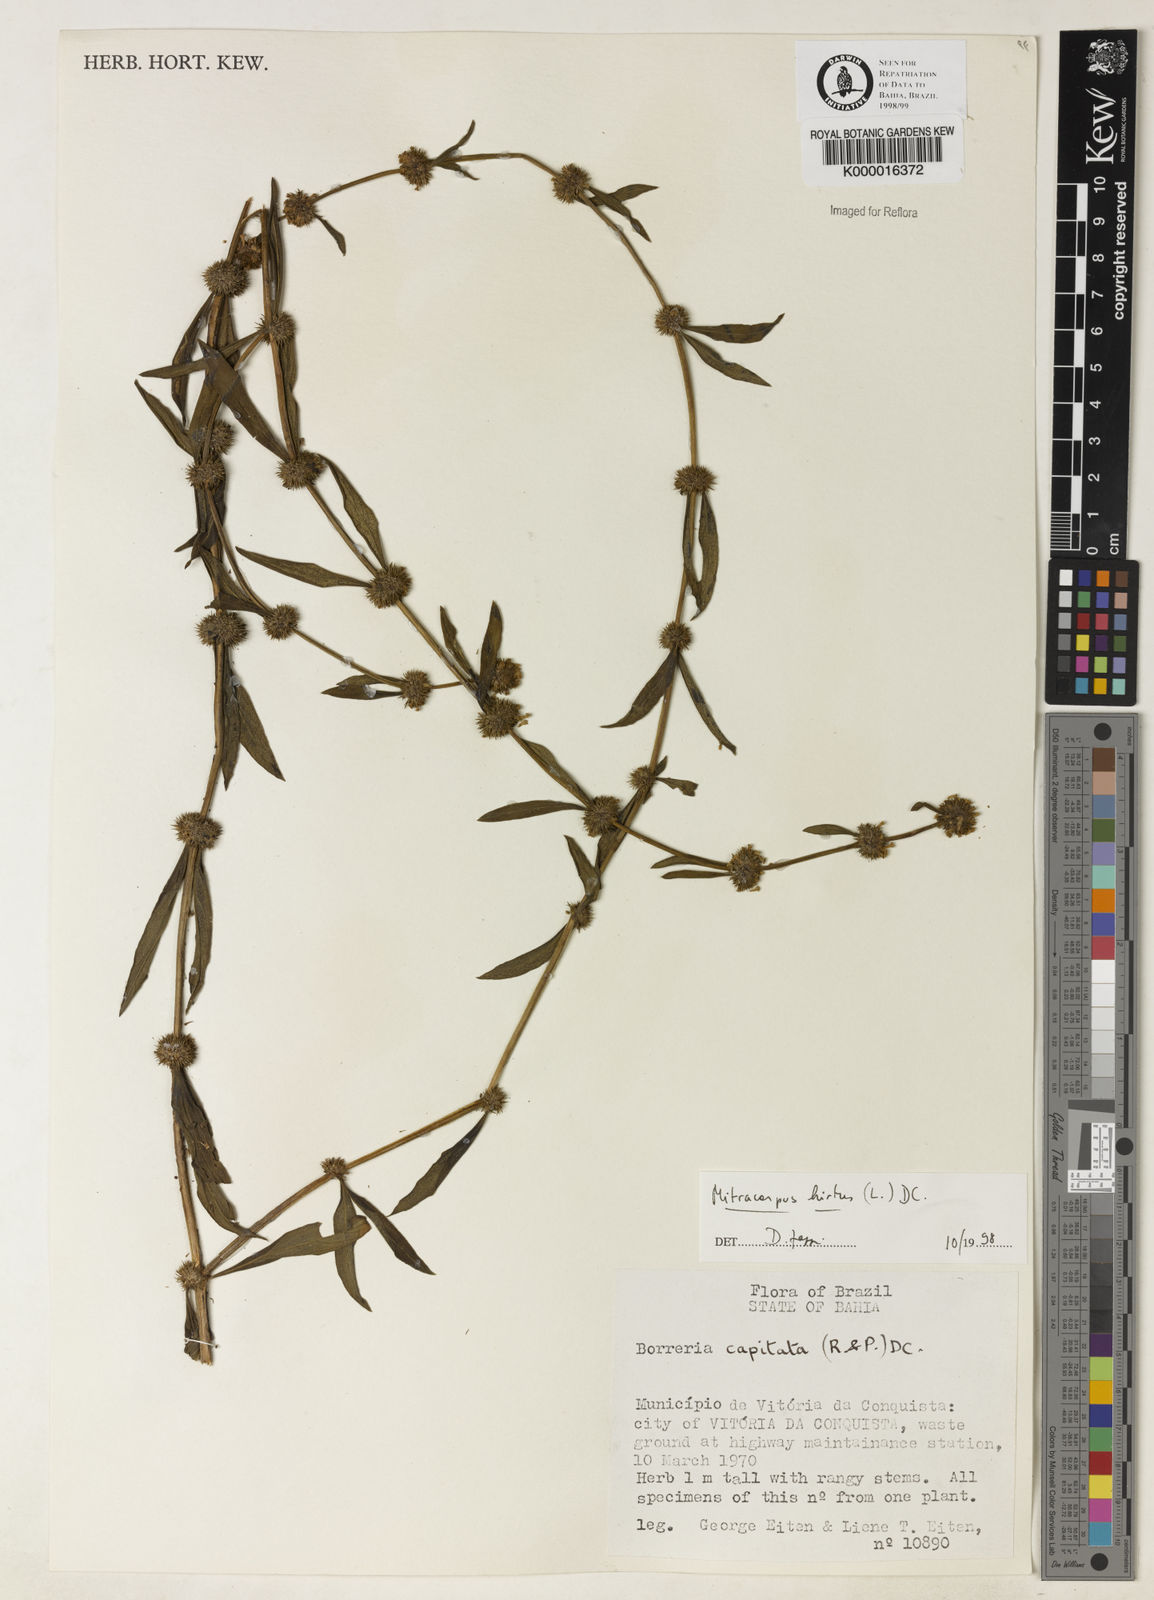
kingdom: Plantae
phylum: Tracheophyta
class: Magnoliopsida
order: Gentianales
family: Rubiaceae
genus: Mitracarpus
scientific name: Mitracarpus
